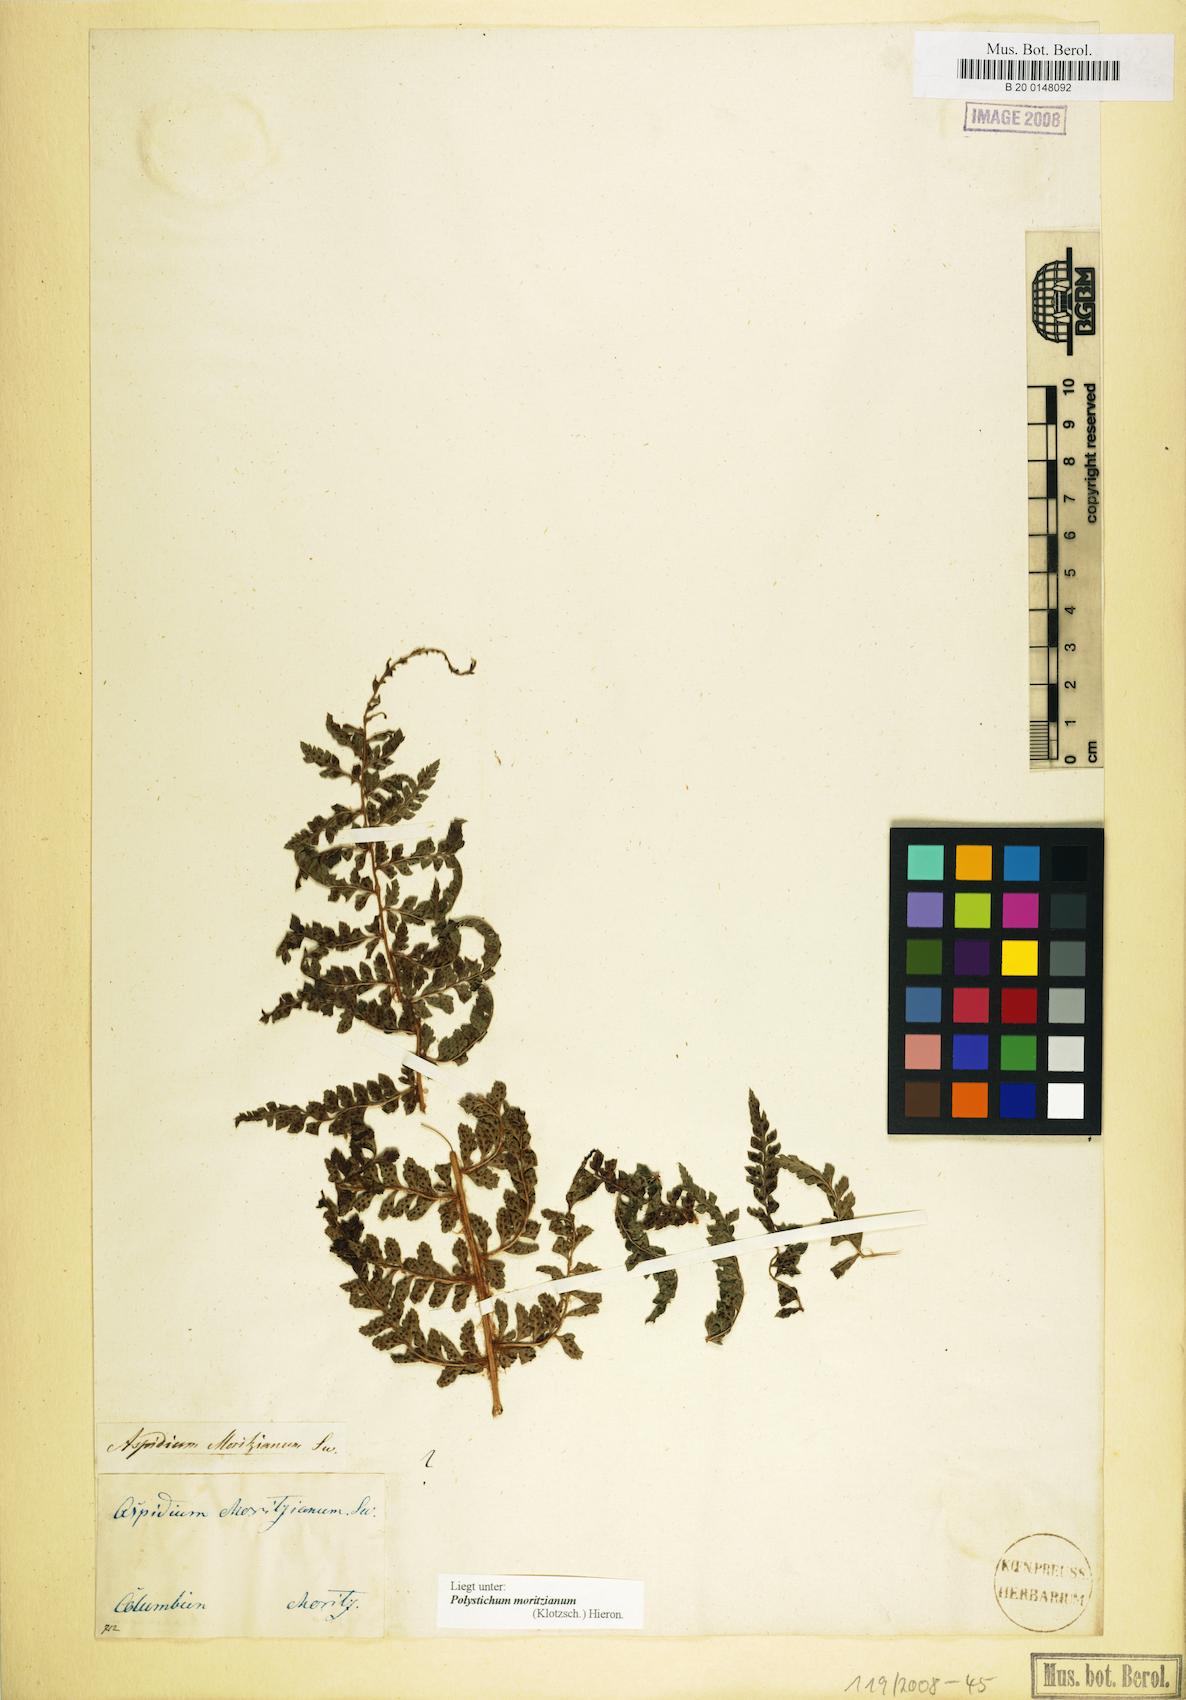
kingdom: Plantae
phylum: Tracheophyta
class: Polypodiopsida
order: Polypodiales
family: Dryopteridaceae
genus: Polystichum
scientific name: Polystichum muricatum
